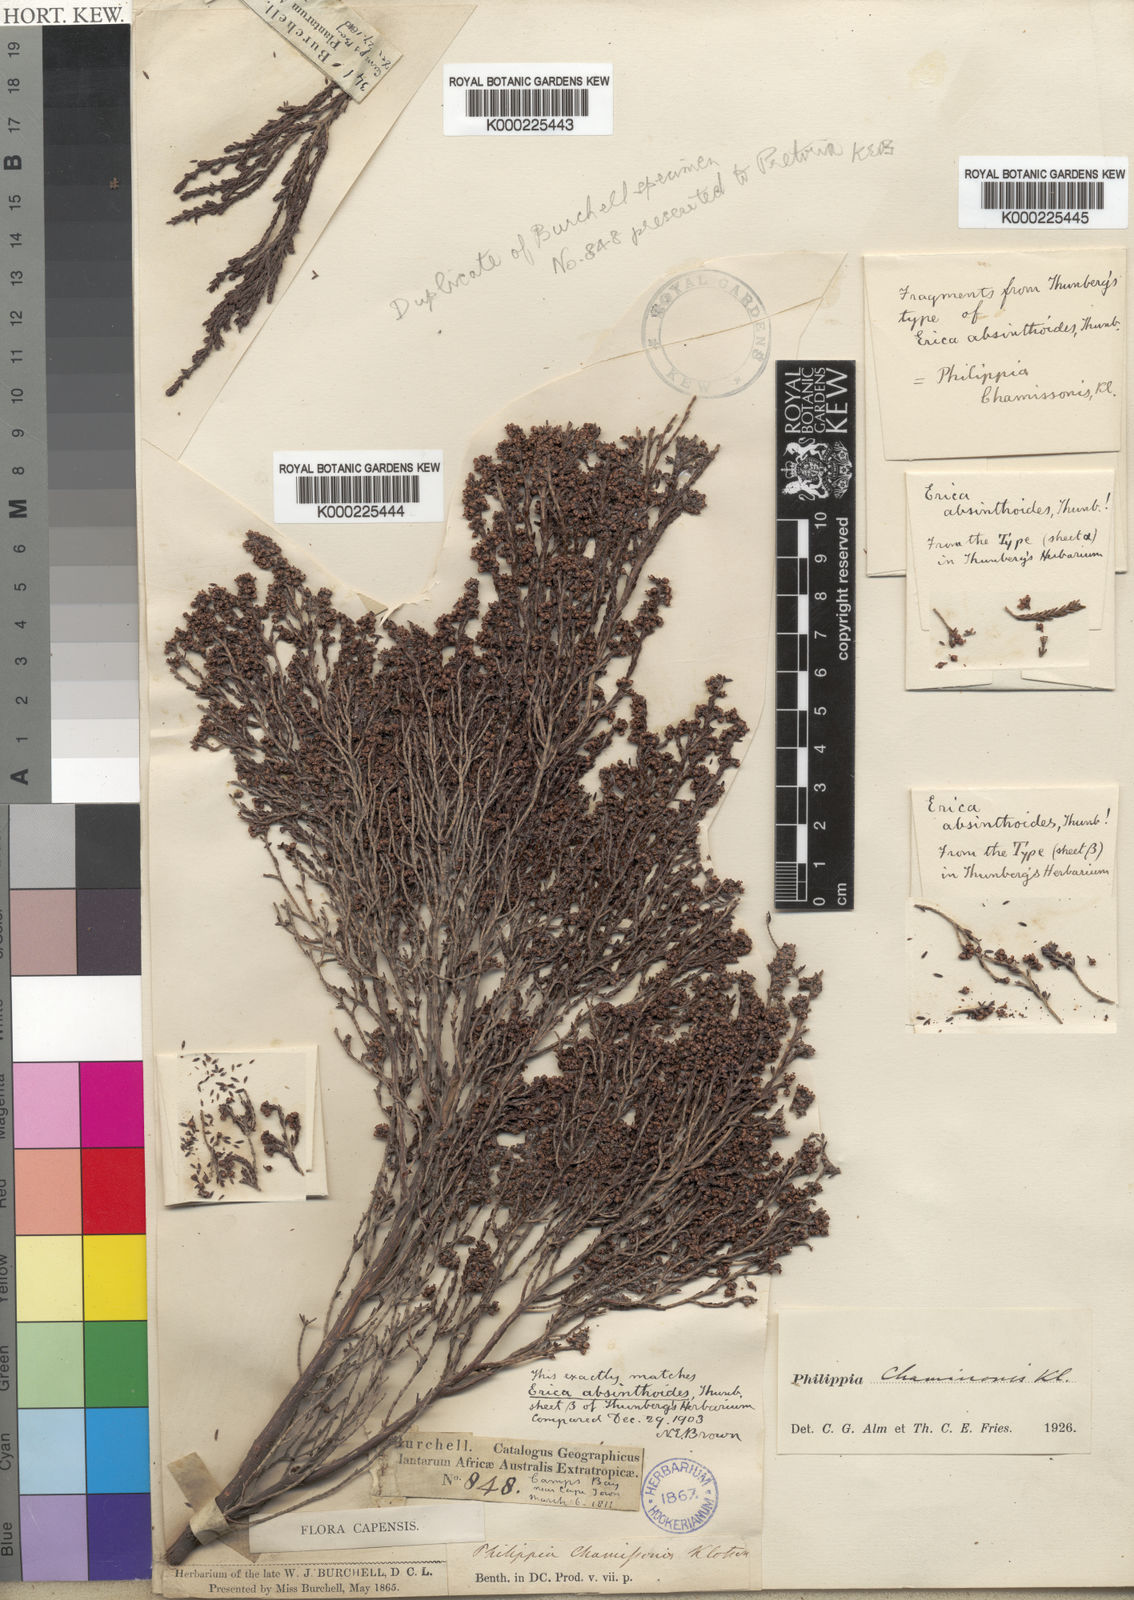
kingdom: Plantae
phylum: Tracheophyta
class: Magnoliopsida
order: Ericales
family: Ericaceae
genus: Erica
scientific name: Erica tristis
